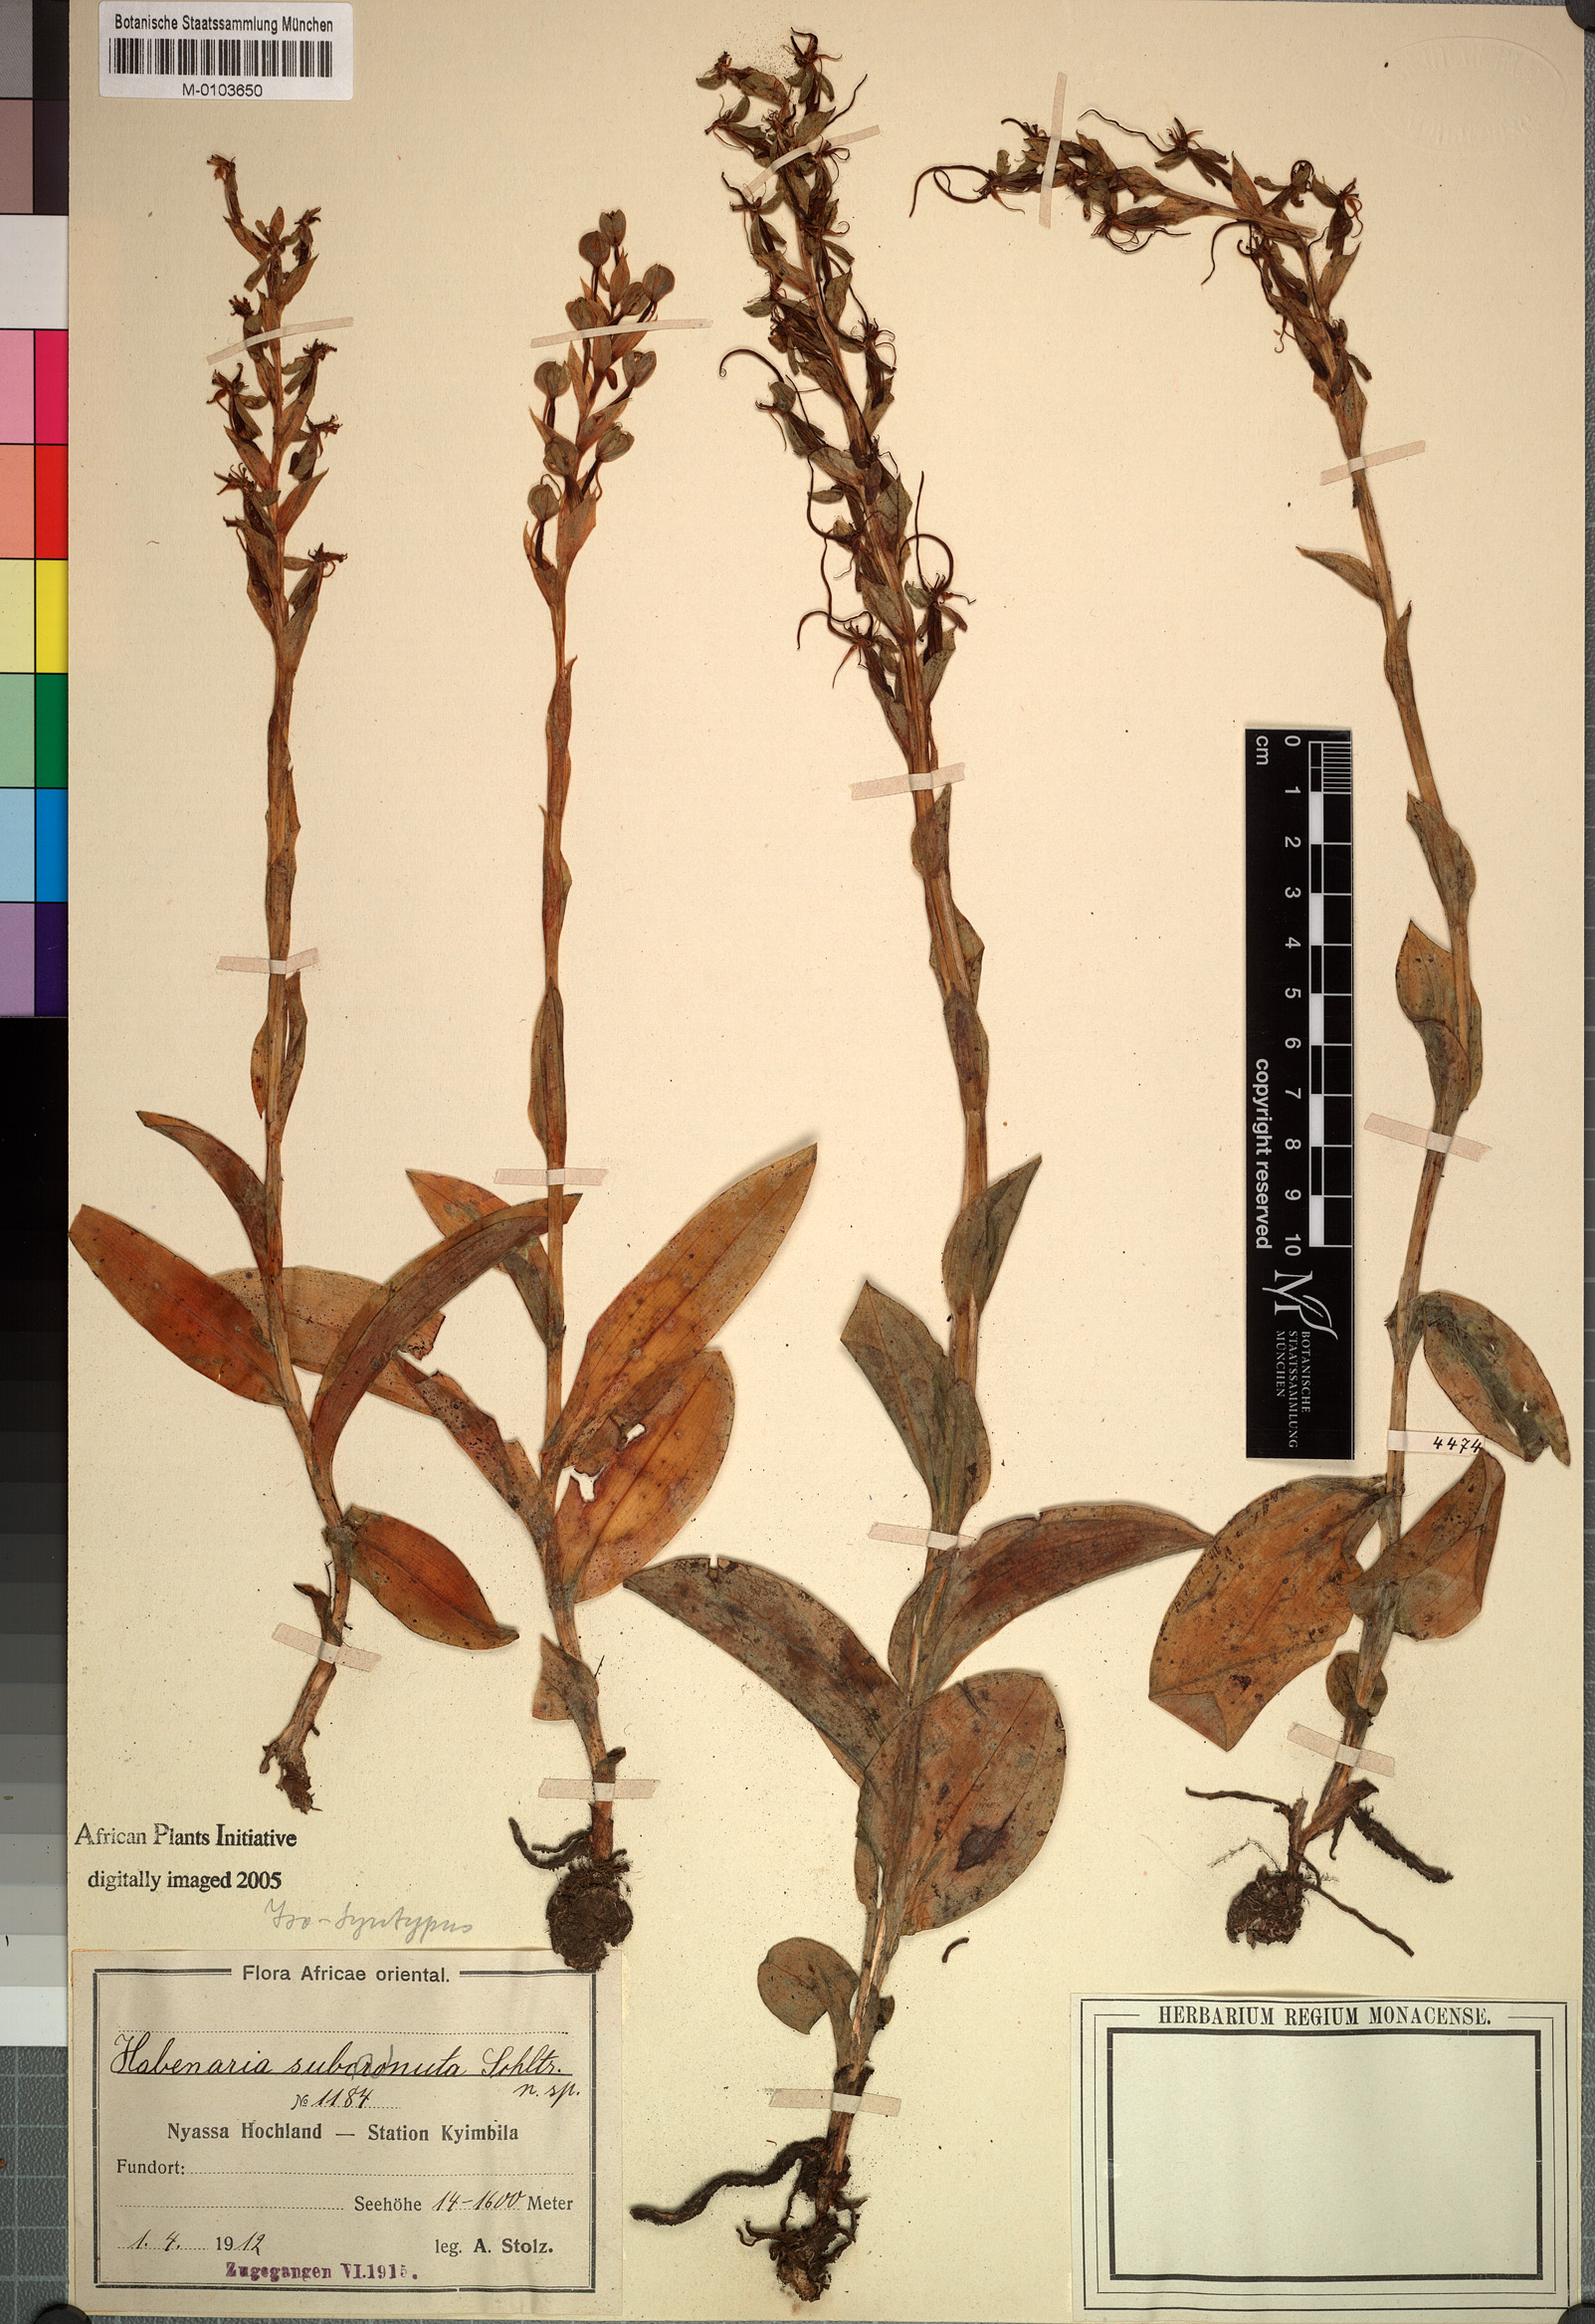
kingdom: Plantae
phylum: Tracheophyta
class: Liliopsida
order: Asparagales
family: Orchidaceae
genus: Habenaria
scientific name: Habenaria cornuta
